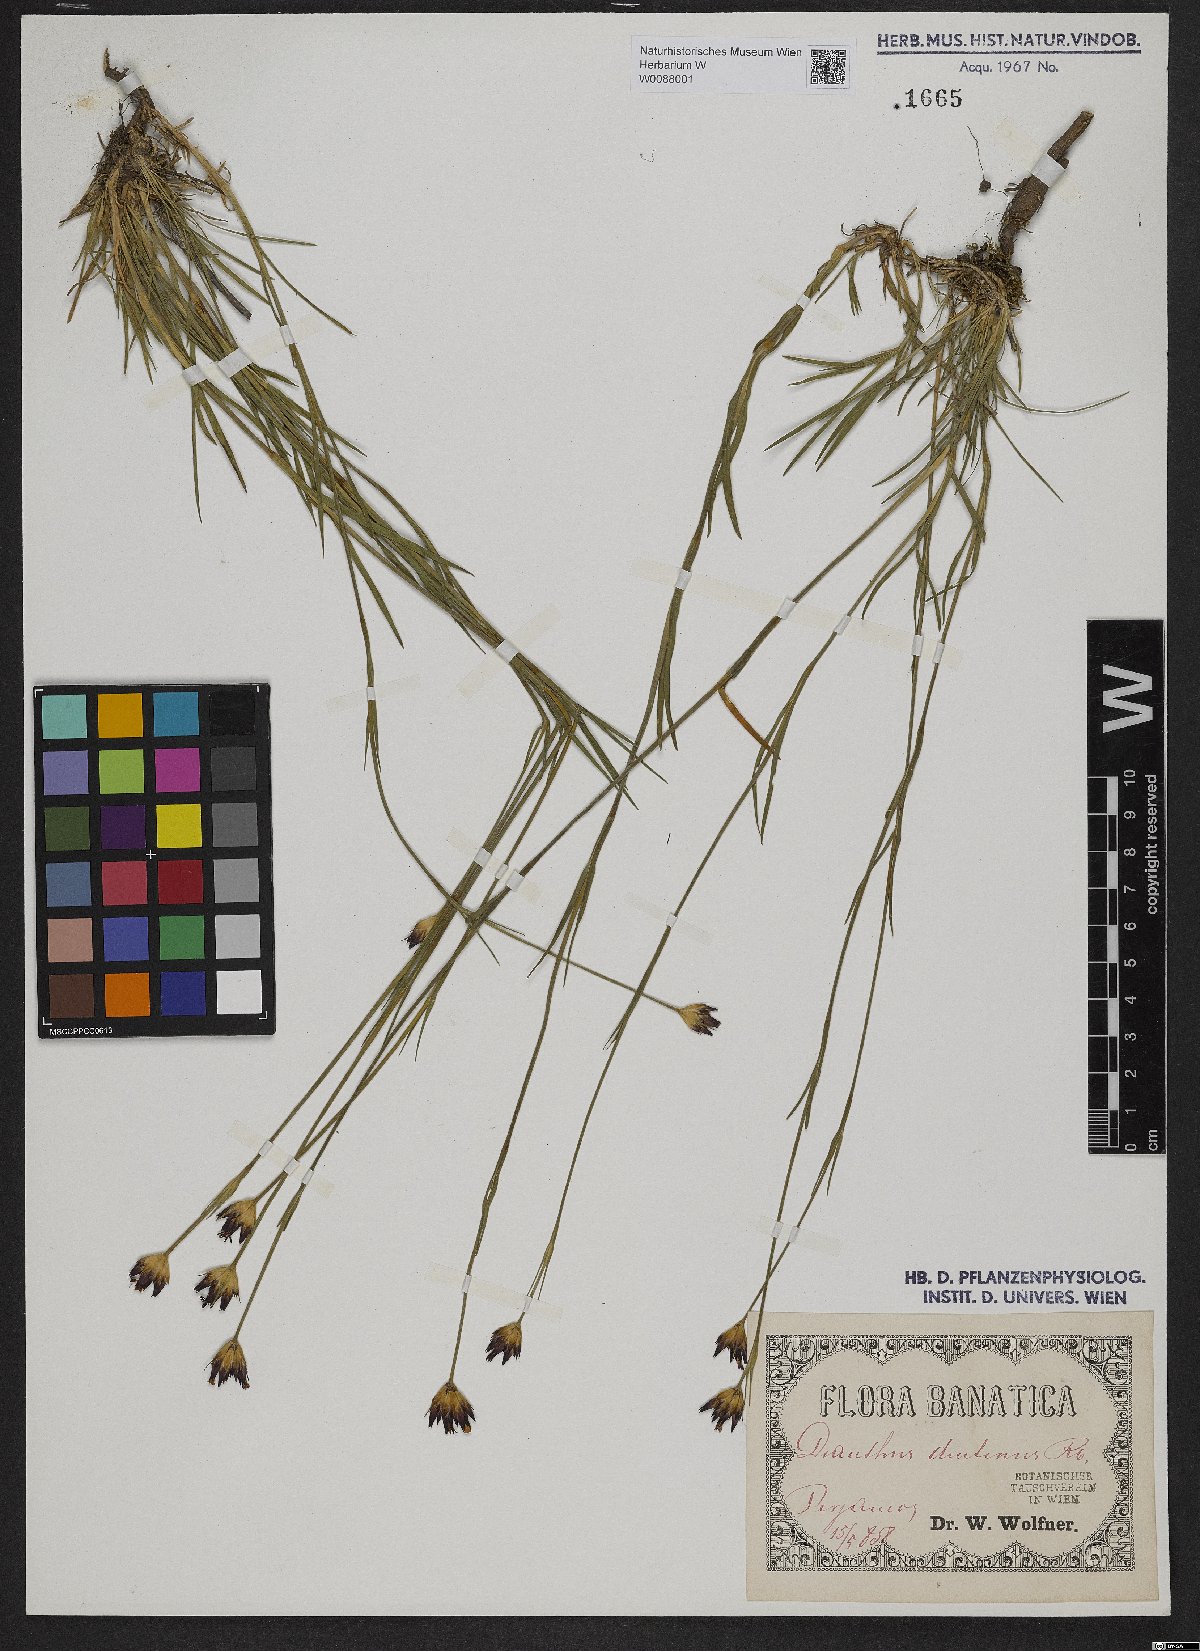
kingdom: Plantae
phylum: Tracheophyta
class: Magnoliopsida
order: Caryophyllales
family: Caryophyllaceae
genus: Dianthus
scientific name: Dianthus pontederae
